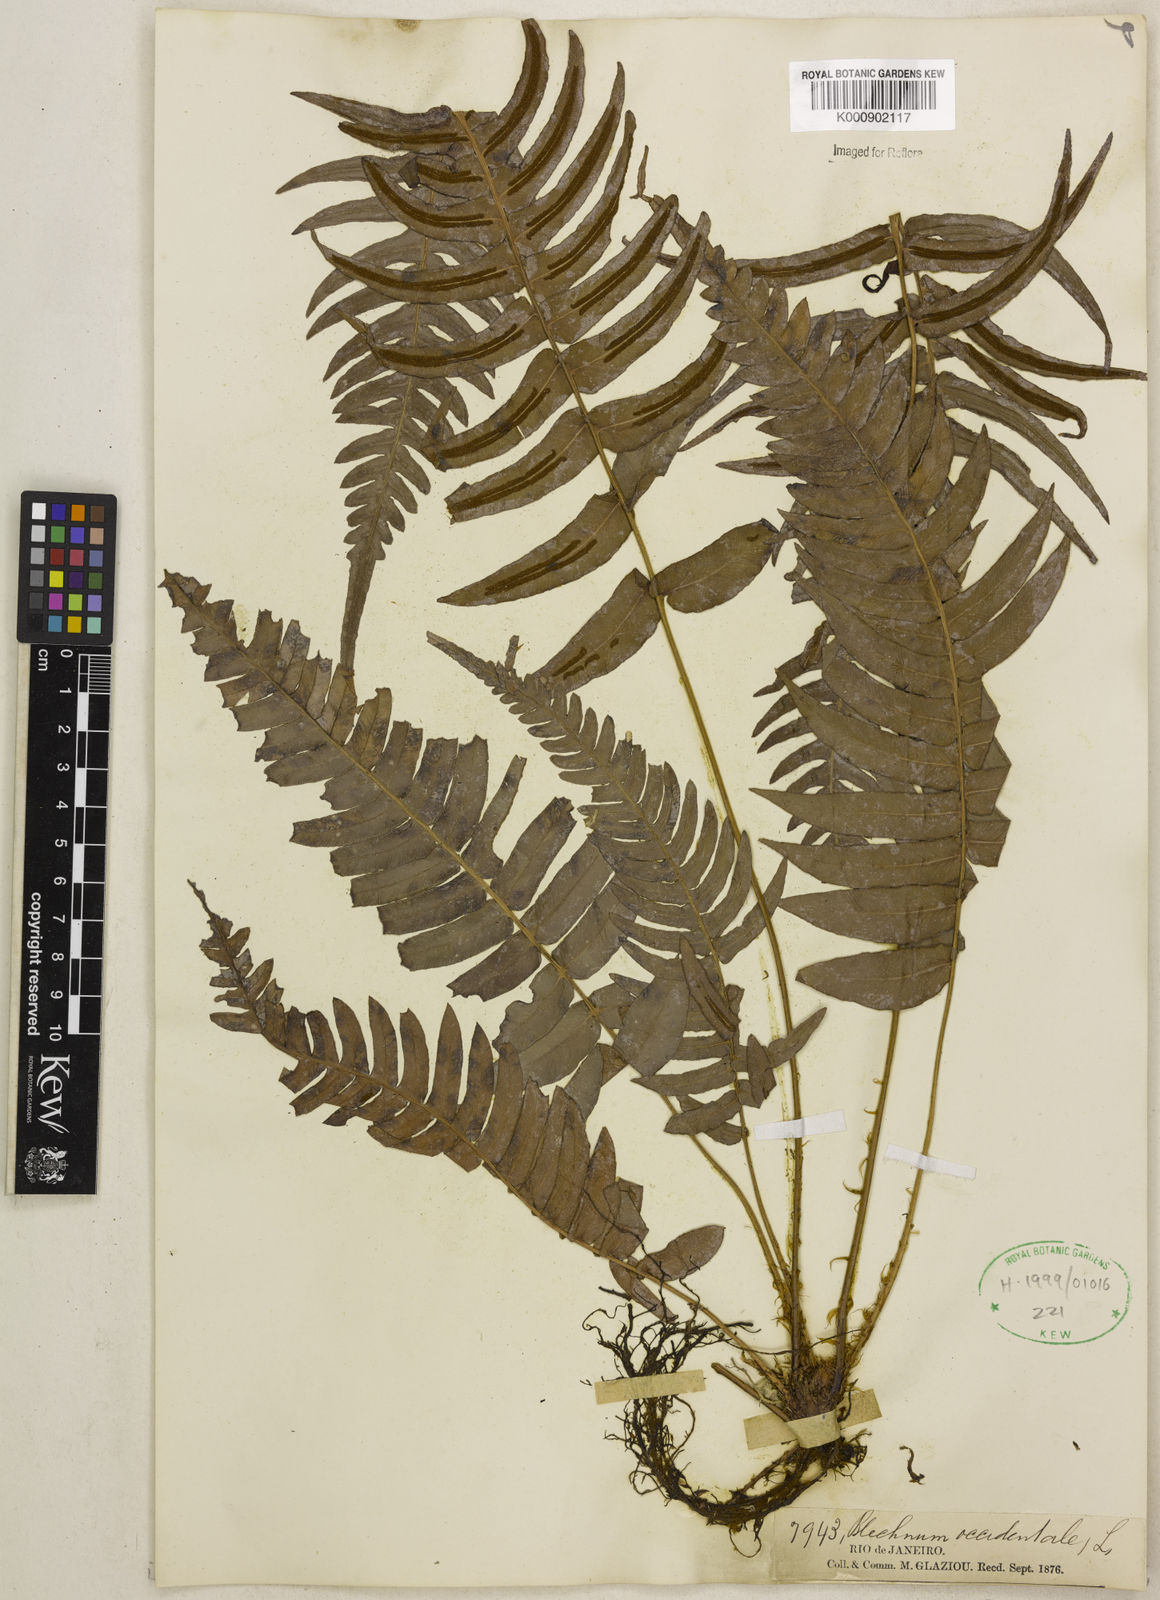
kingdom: Plantae
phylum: Tracheophyta
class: Polypodiopsida
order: Polypodiales
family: Blechnaceae
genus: Blechnum
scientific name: Blechnum occidentale
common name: Hammock fern
